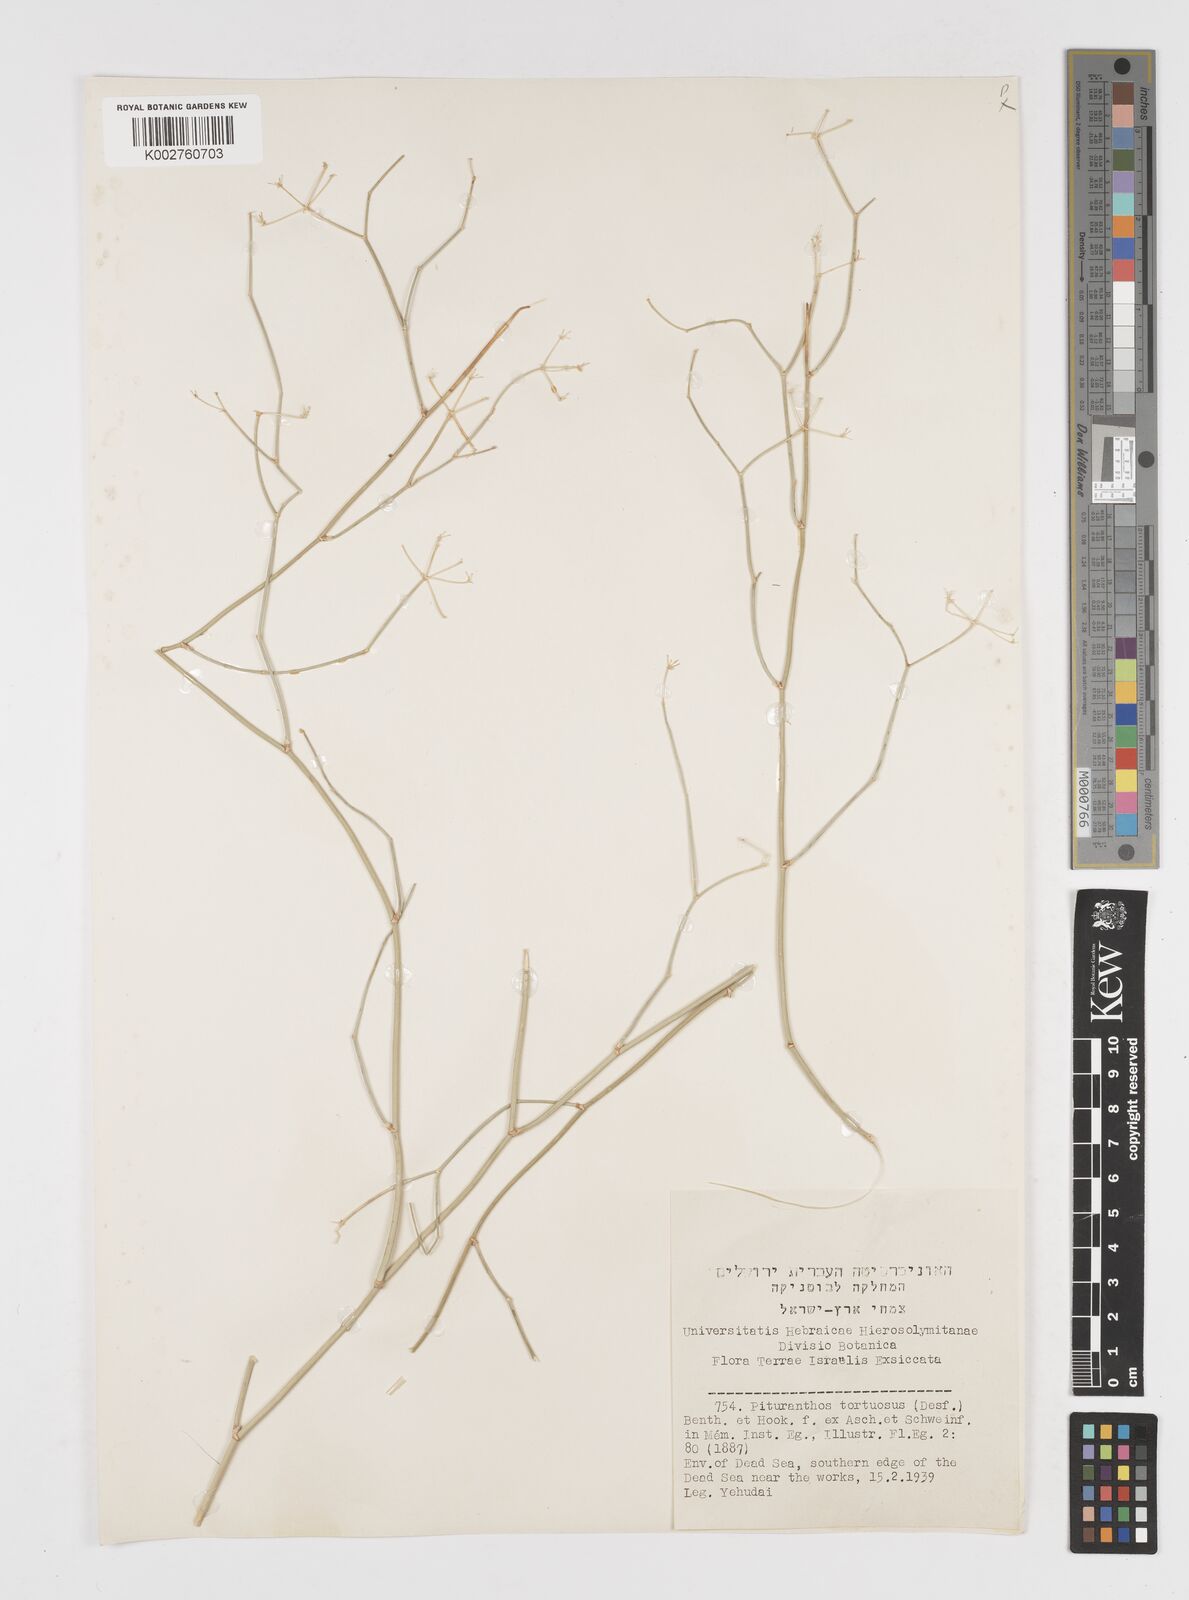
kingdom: Plantae
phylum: Tracheophyta
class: Magnoliopsida
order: Apiales
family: Apiaceae
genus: Deverra
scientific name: Deverra tortuosa
